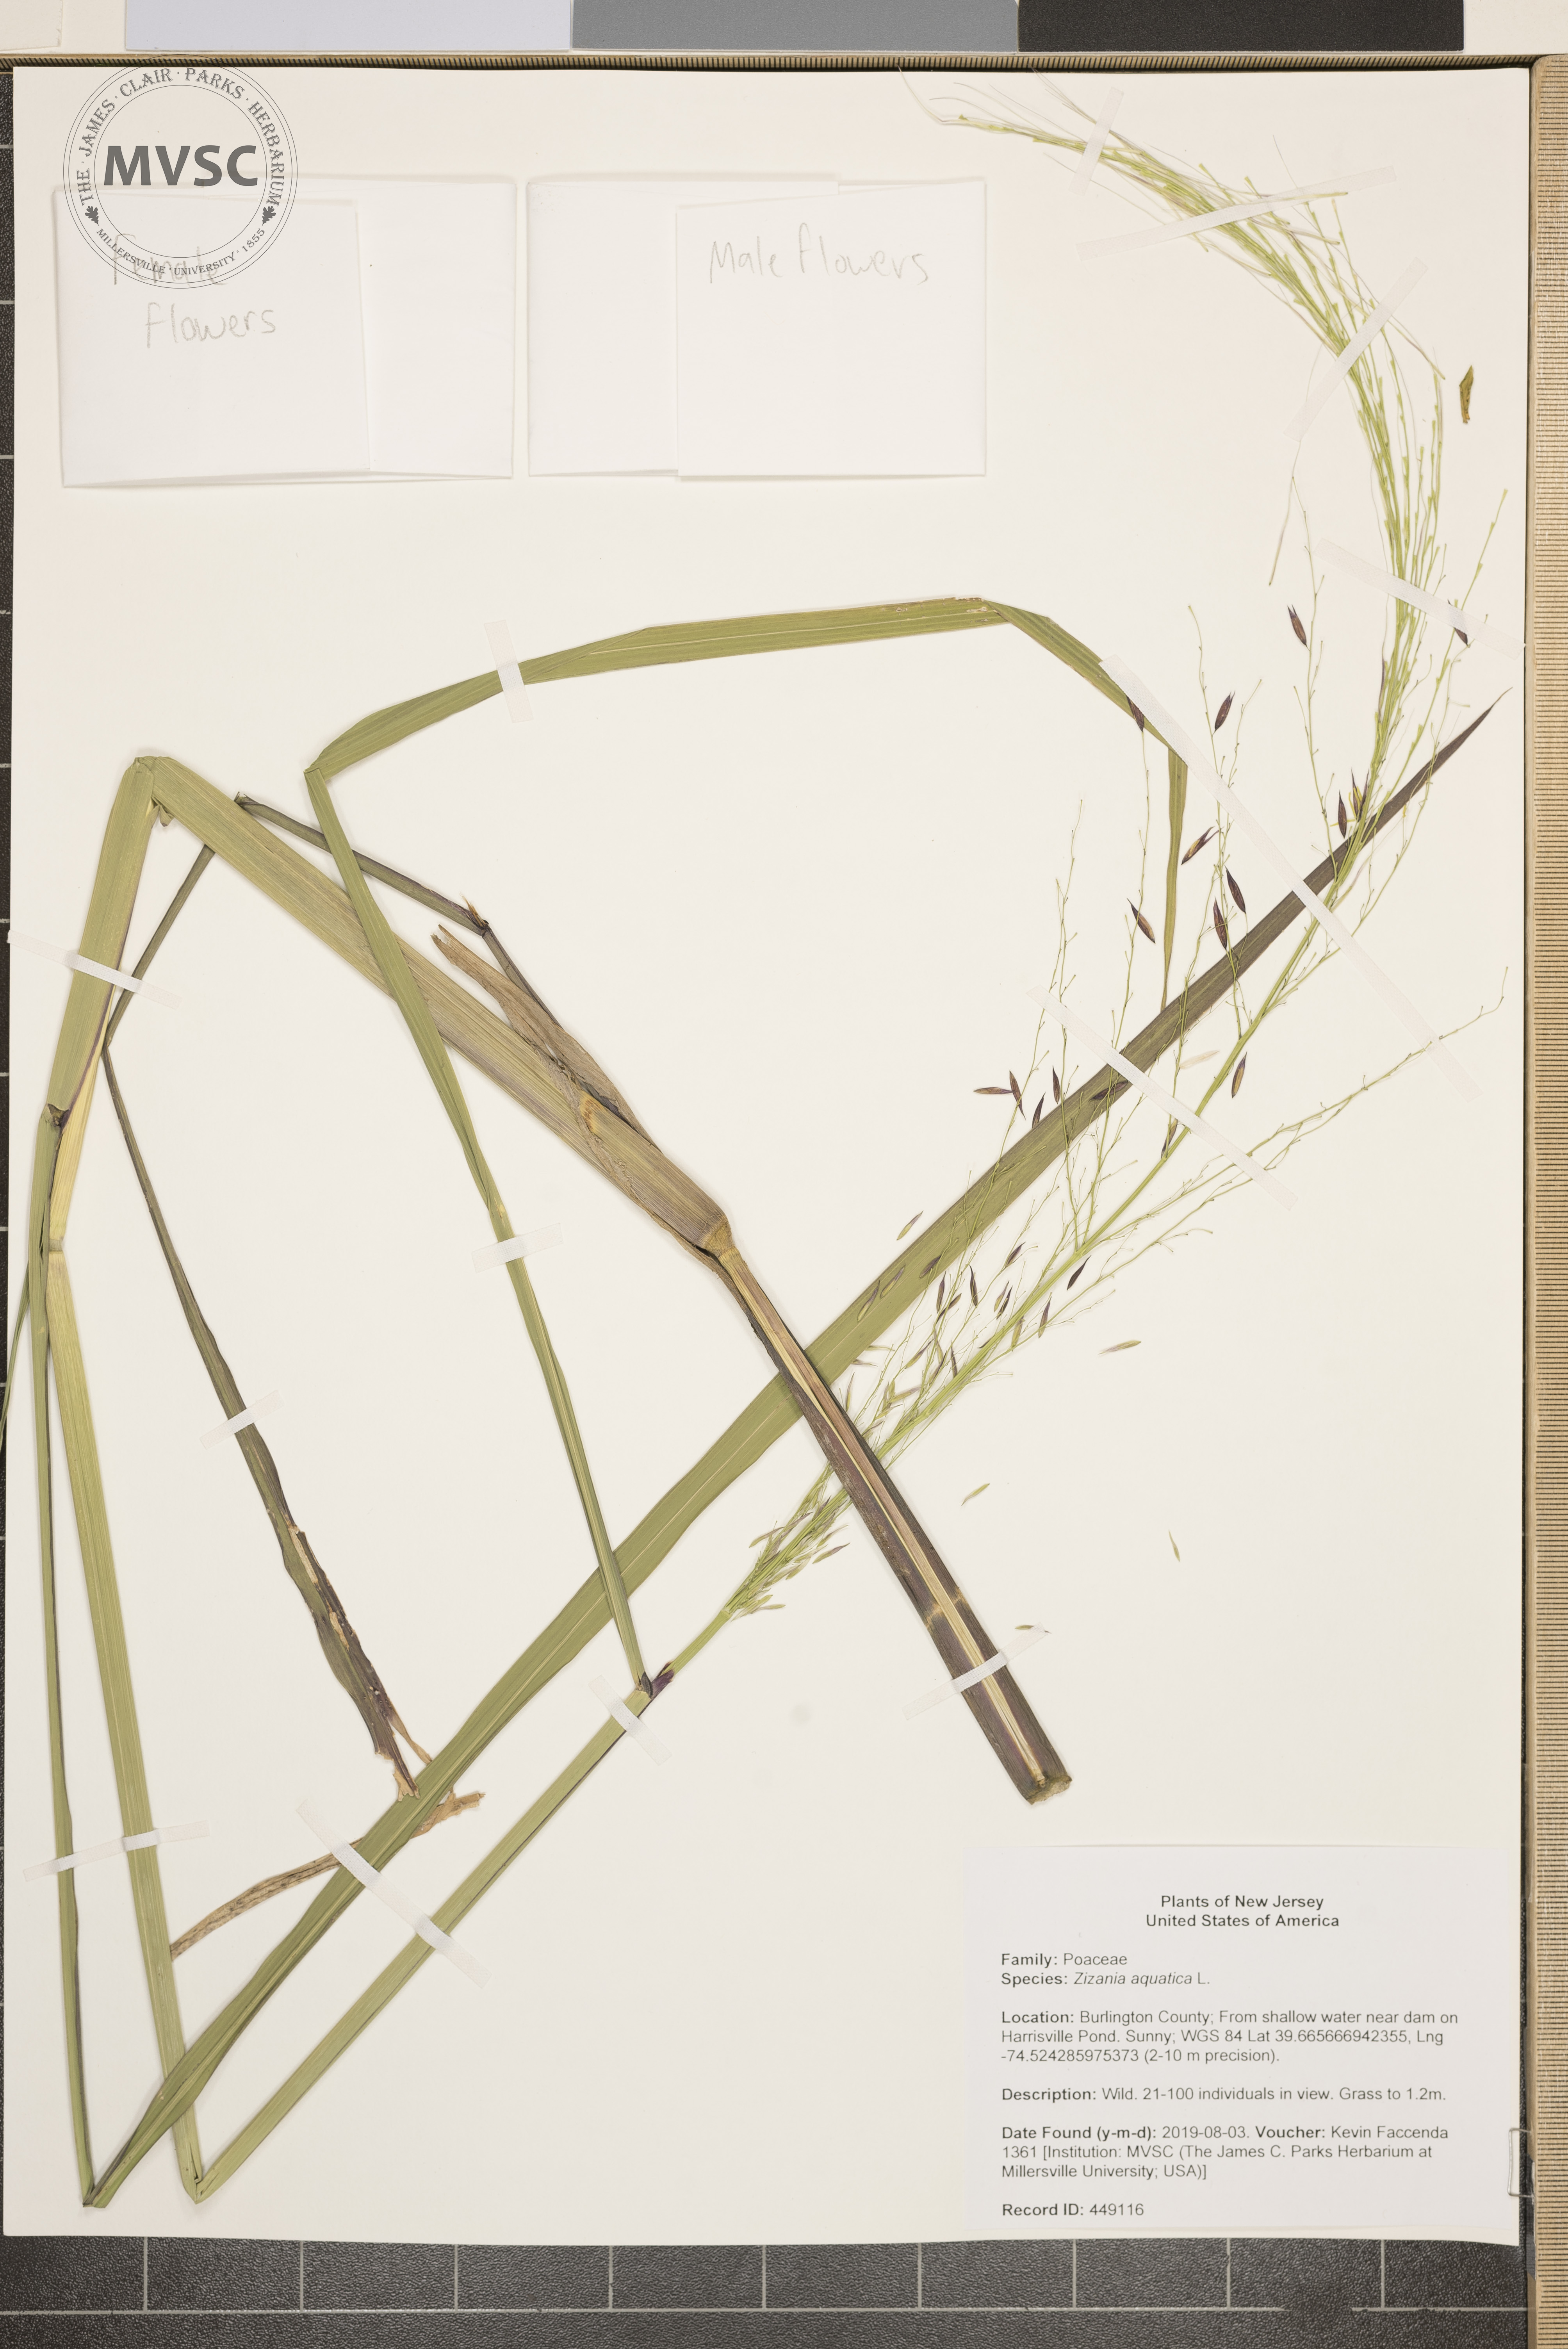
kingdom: Plantae
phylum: Tracheophyta
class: Liliopsida
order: Poales
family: Poaceae
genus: Zizania
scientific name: Zizania aquatica
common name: Annual wildrice
